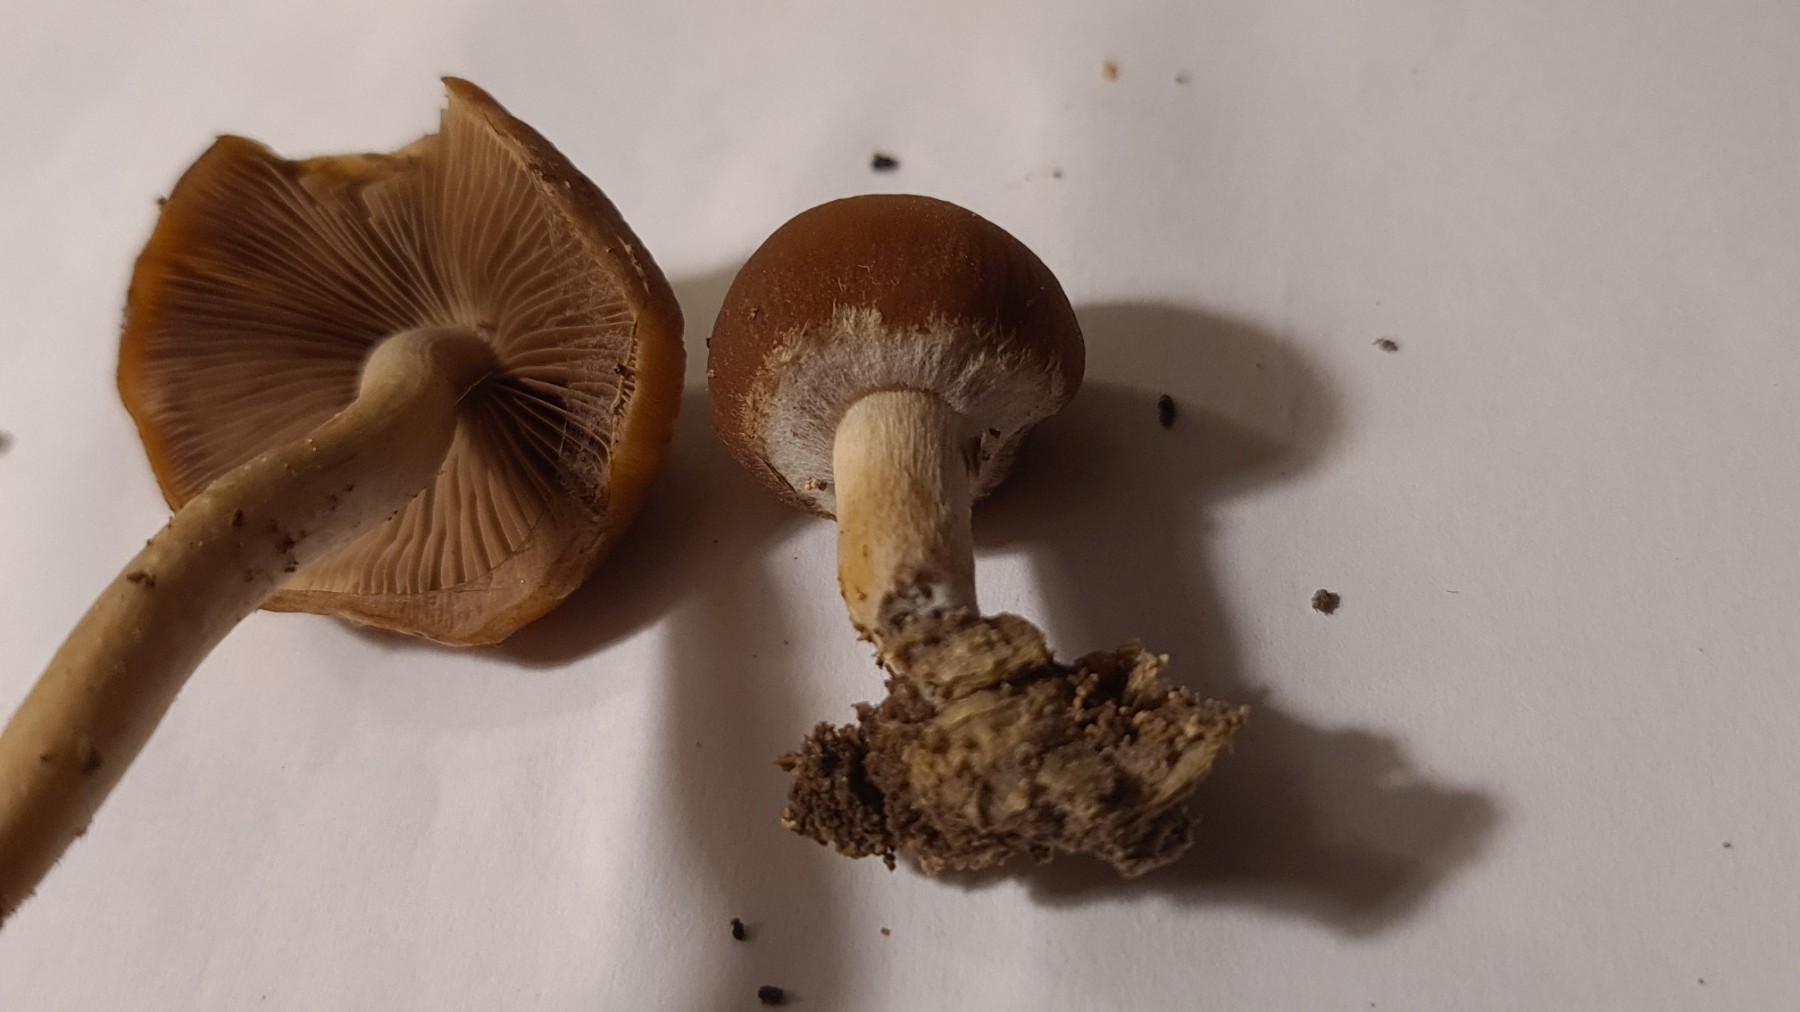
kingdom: Fungi
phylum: Basidiomycota
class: Agaricomycetes
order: Agaricales
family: Psathyrellaceae
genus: Psathyrella
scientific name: Psathyrella piluliformis
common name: lysstokket mørkhat
